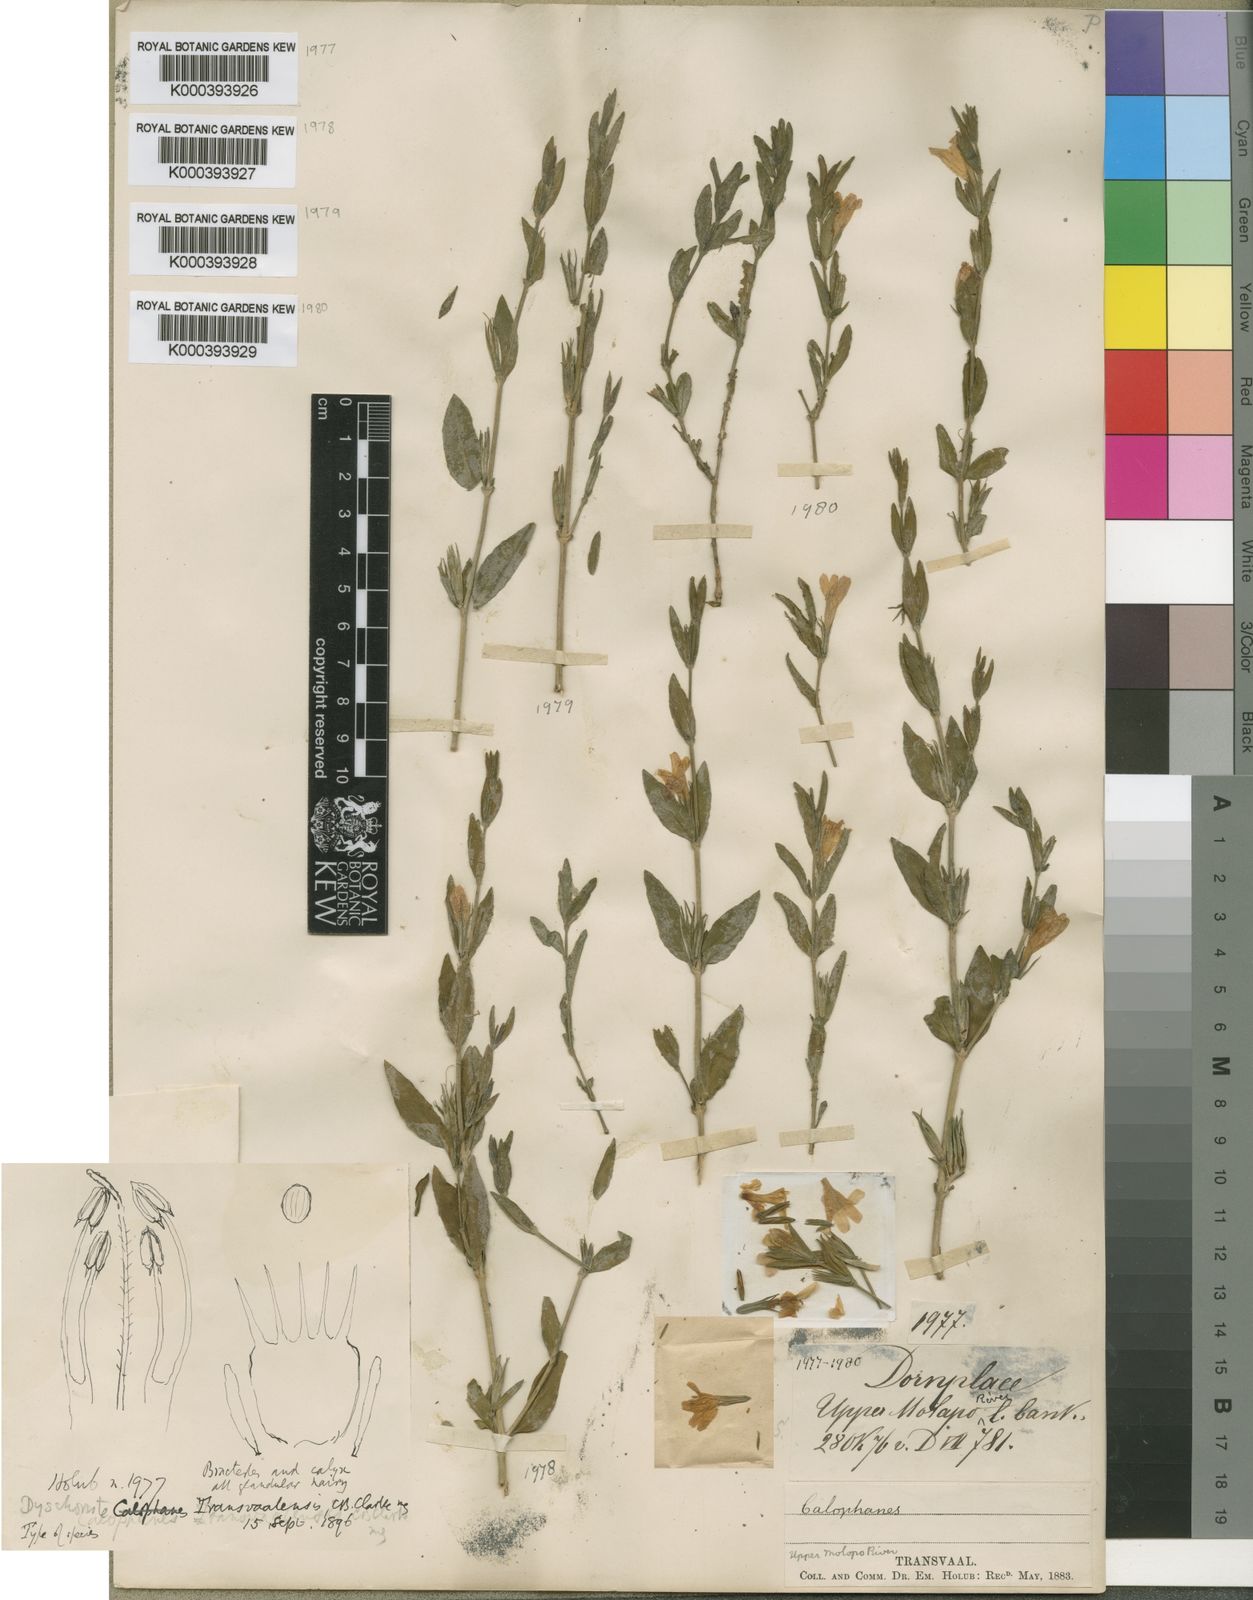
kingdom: Plantae
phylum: Tracheophyta
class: Magnoliopsida
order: Lamiales
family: Acanthaceae
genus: Dyschoriste
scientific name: Dyschoriste capricornis
